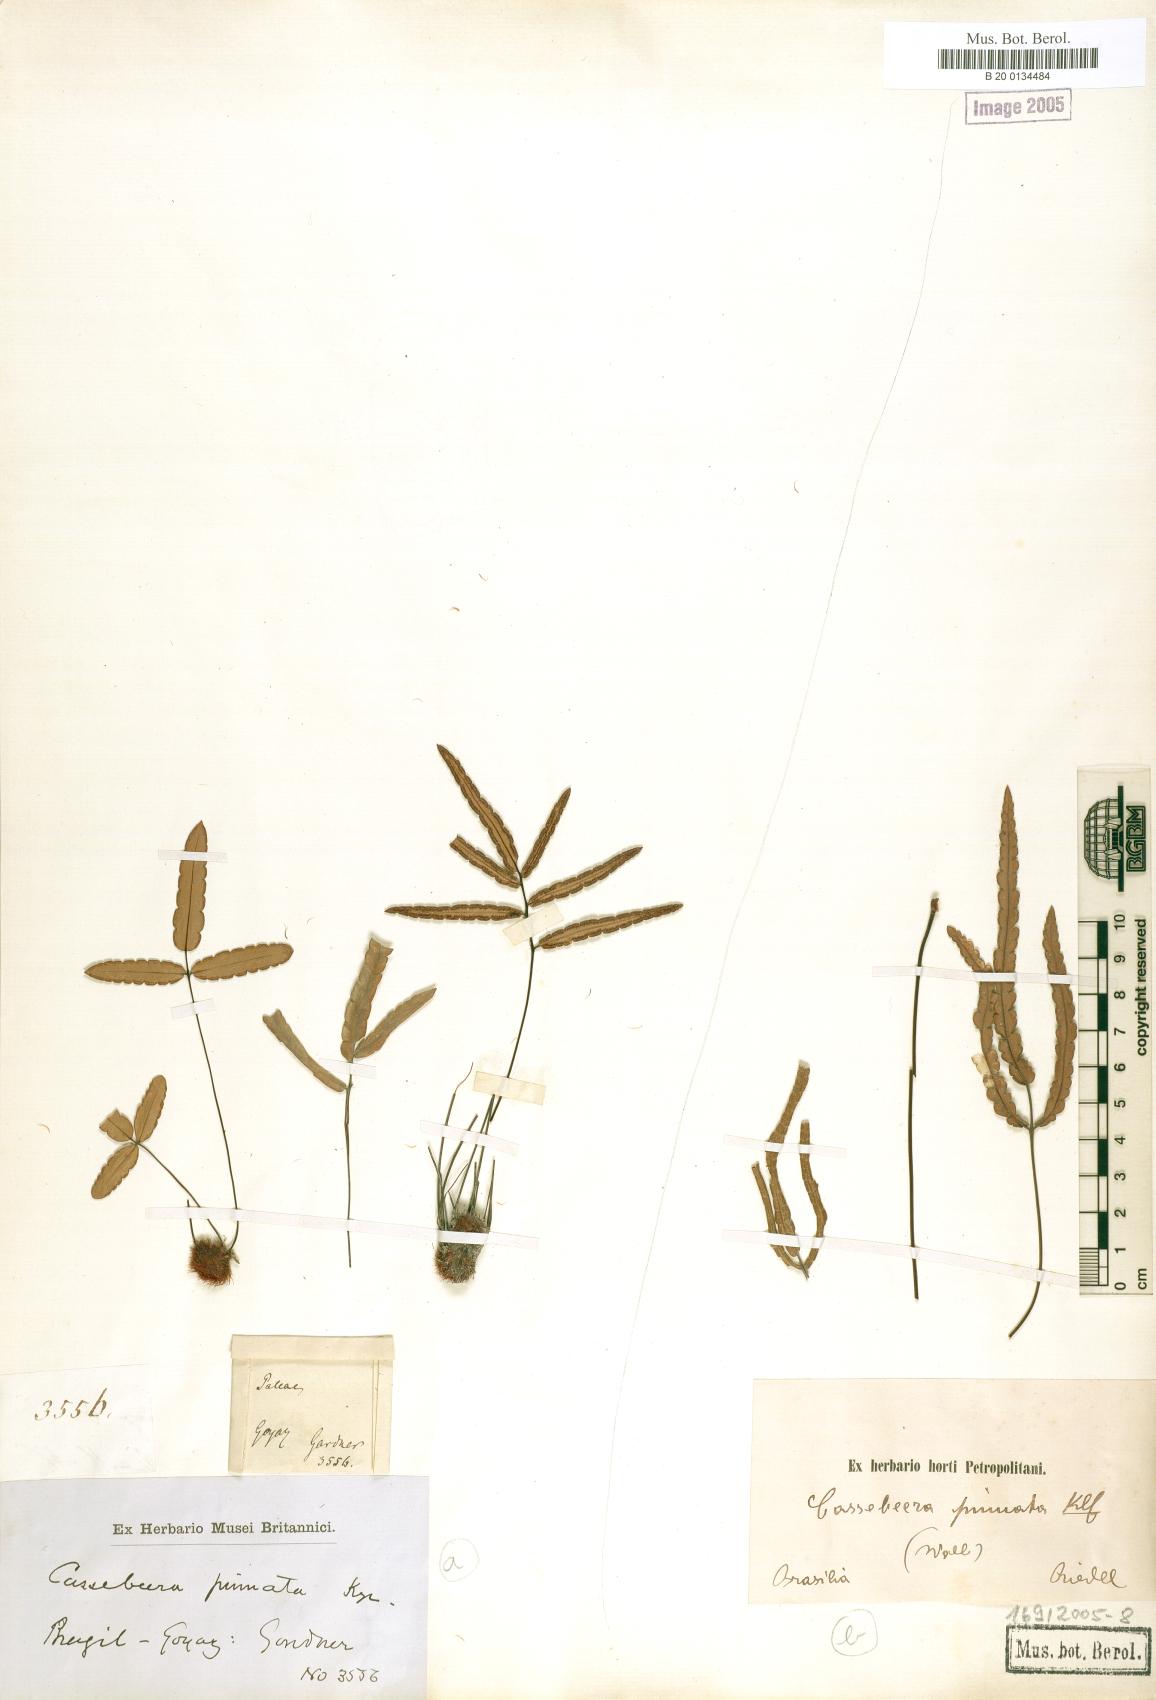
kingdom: Plantae
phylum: Tracheophyta
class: Polypodiopsida
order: Polypodiales
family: Pteridaceae
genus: Ormopteris
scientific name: Ormopteris pinnata
